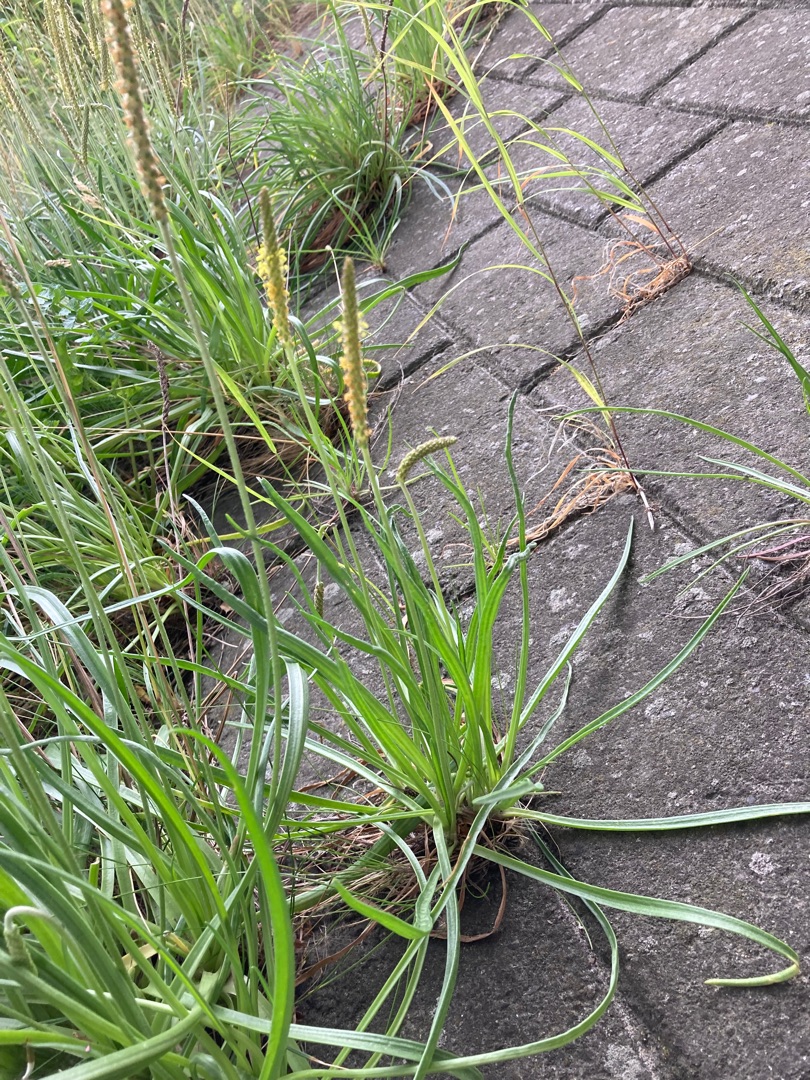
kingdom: Plantae
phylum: Tracheophyta
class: Magnoliopsida
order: Lamiales
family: Plantaginaceae
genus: Plantago
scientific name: Plantago maritima
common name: Strand-vejbred
